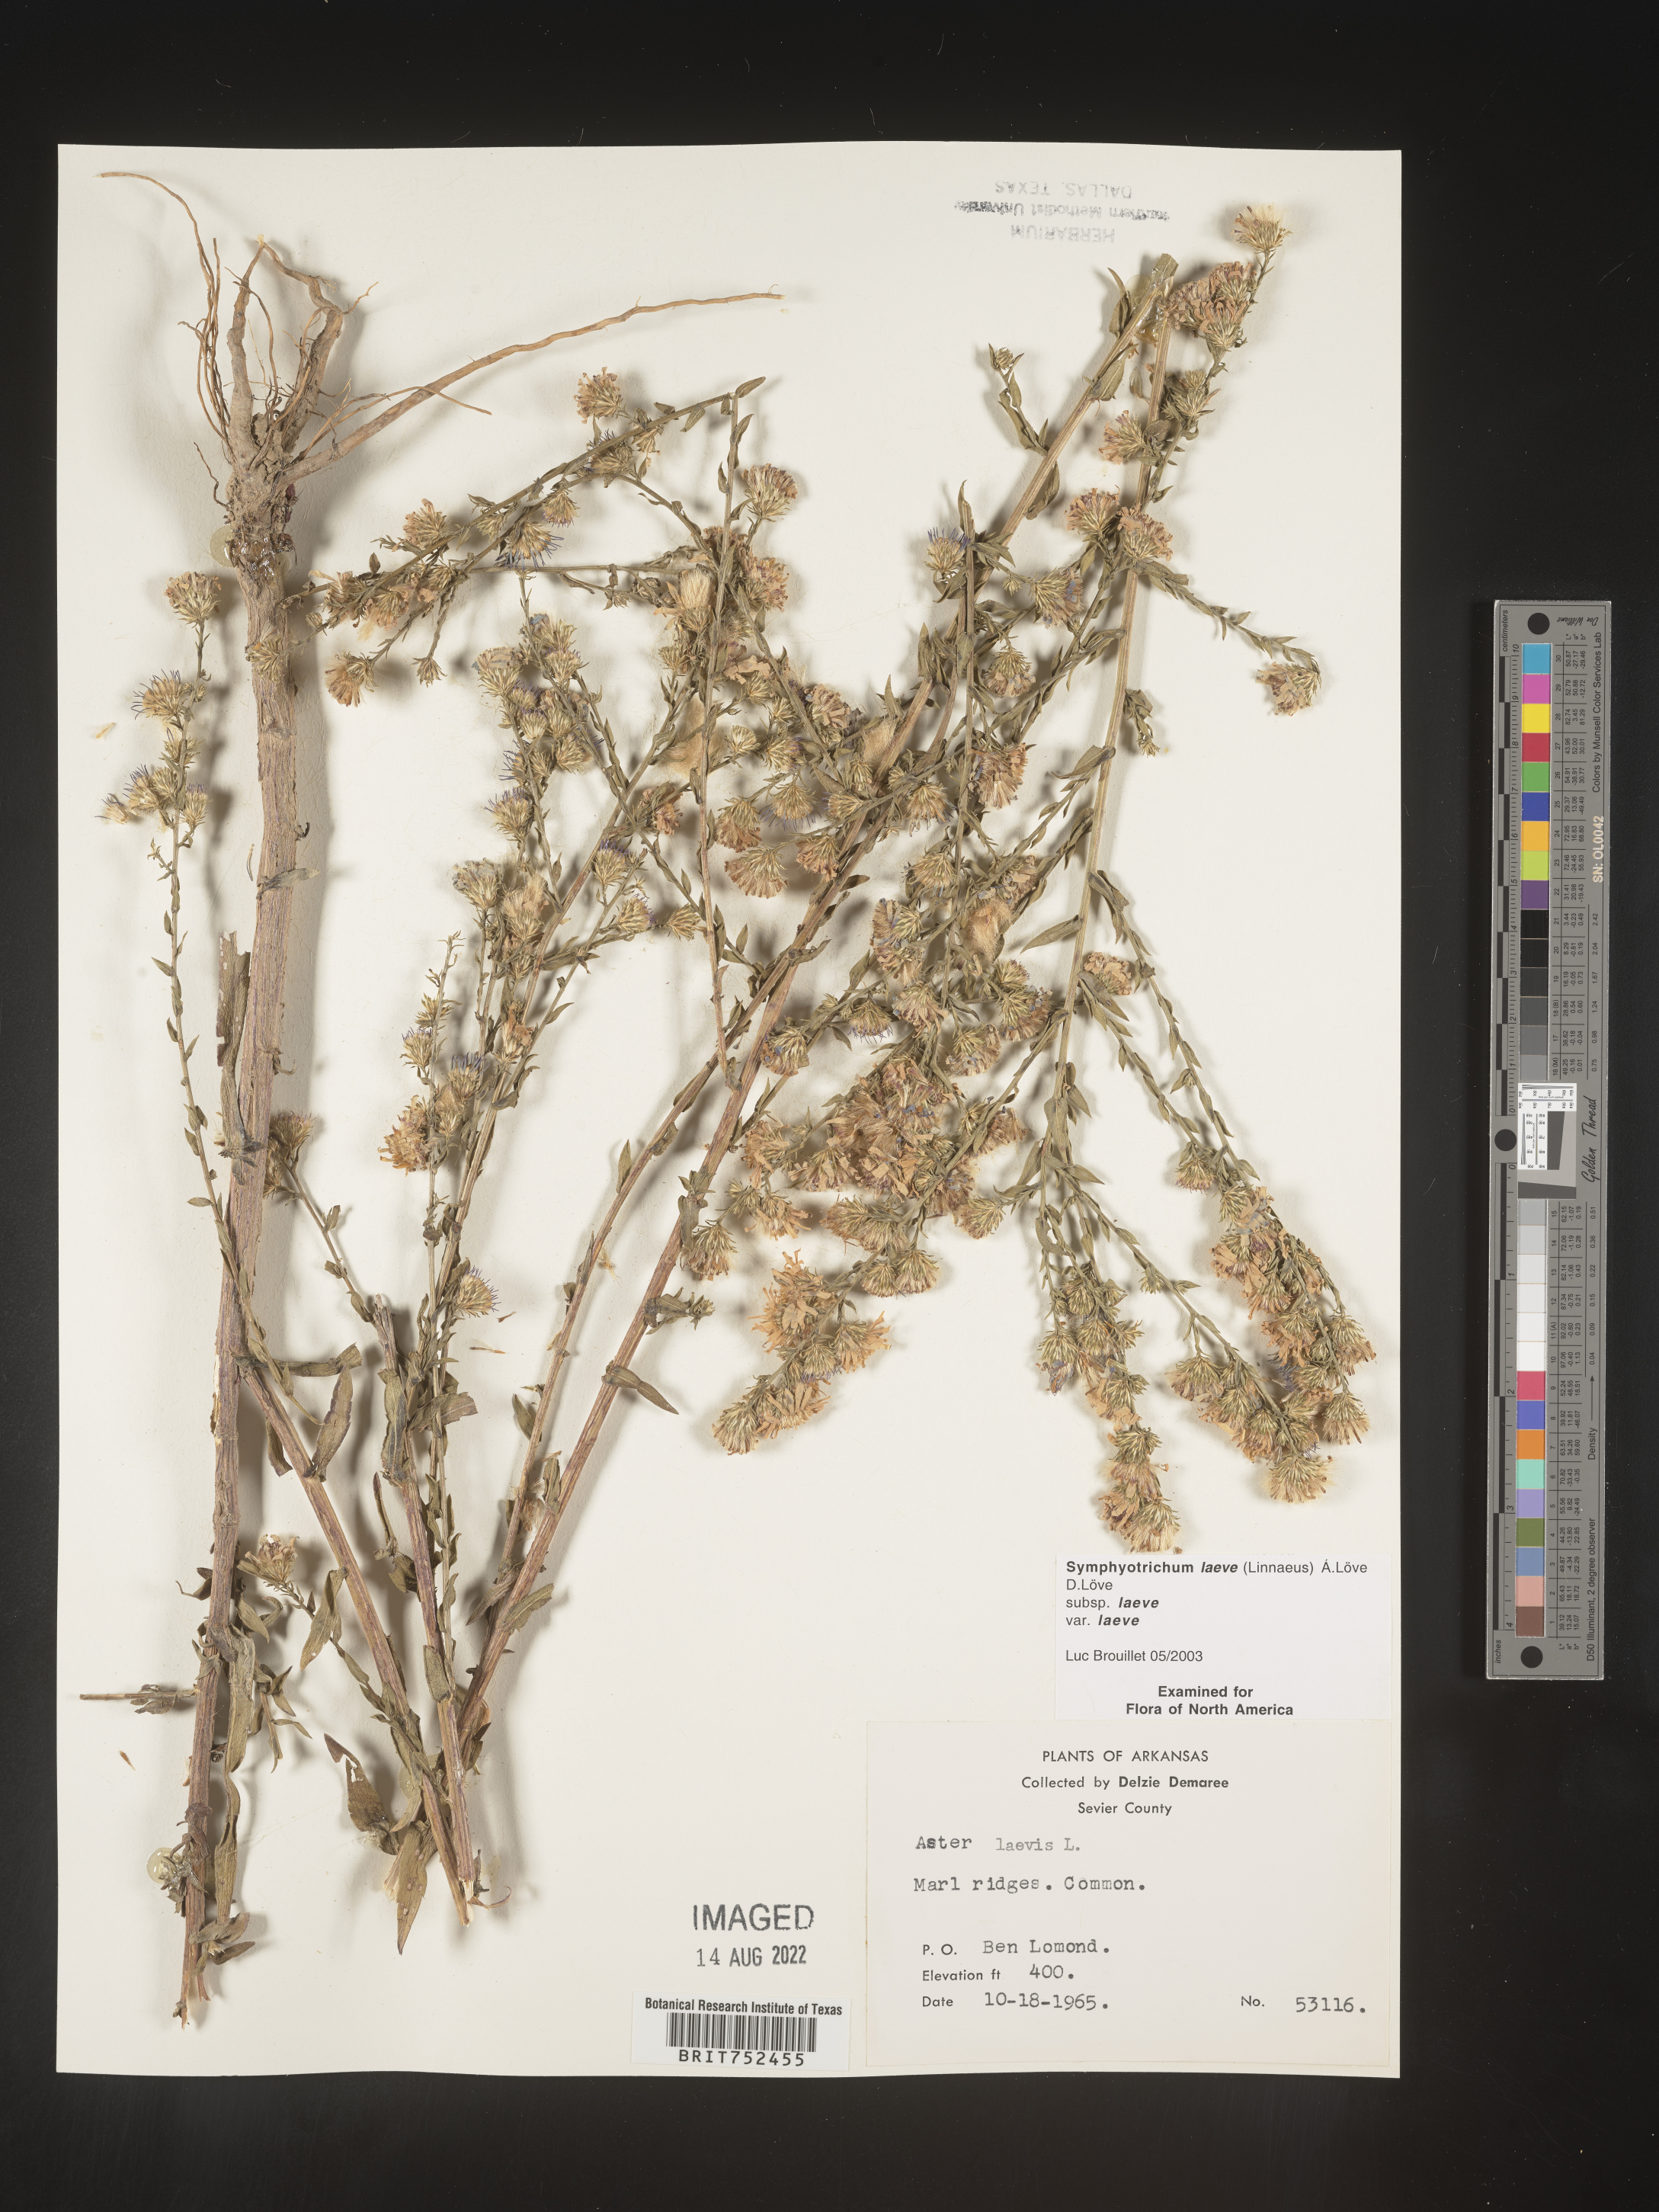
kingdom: Plantae
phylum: Tracheophyta
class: Magnoliopsida
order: Asterales
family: Asteraceae
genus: Symphyotrichum
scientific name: Symphyotrichum laeve
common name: Glaucous aster
